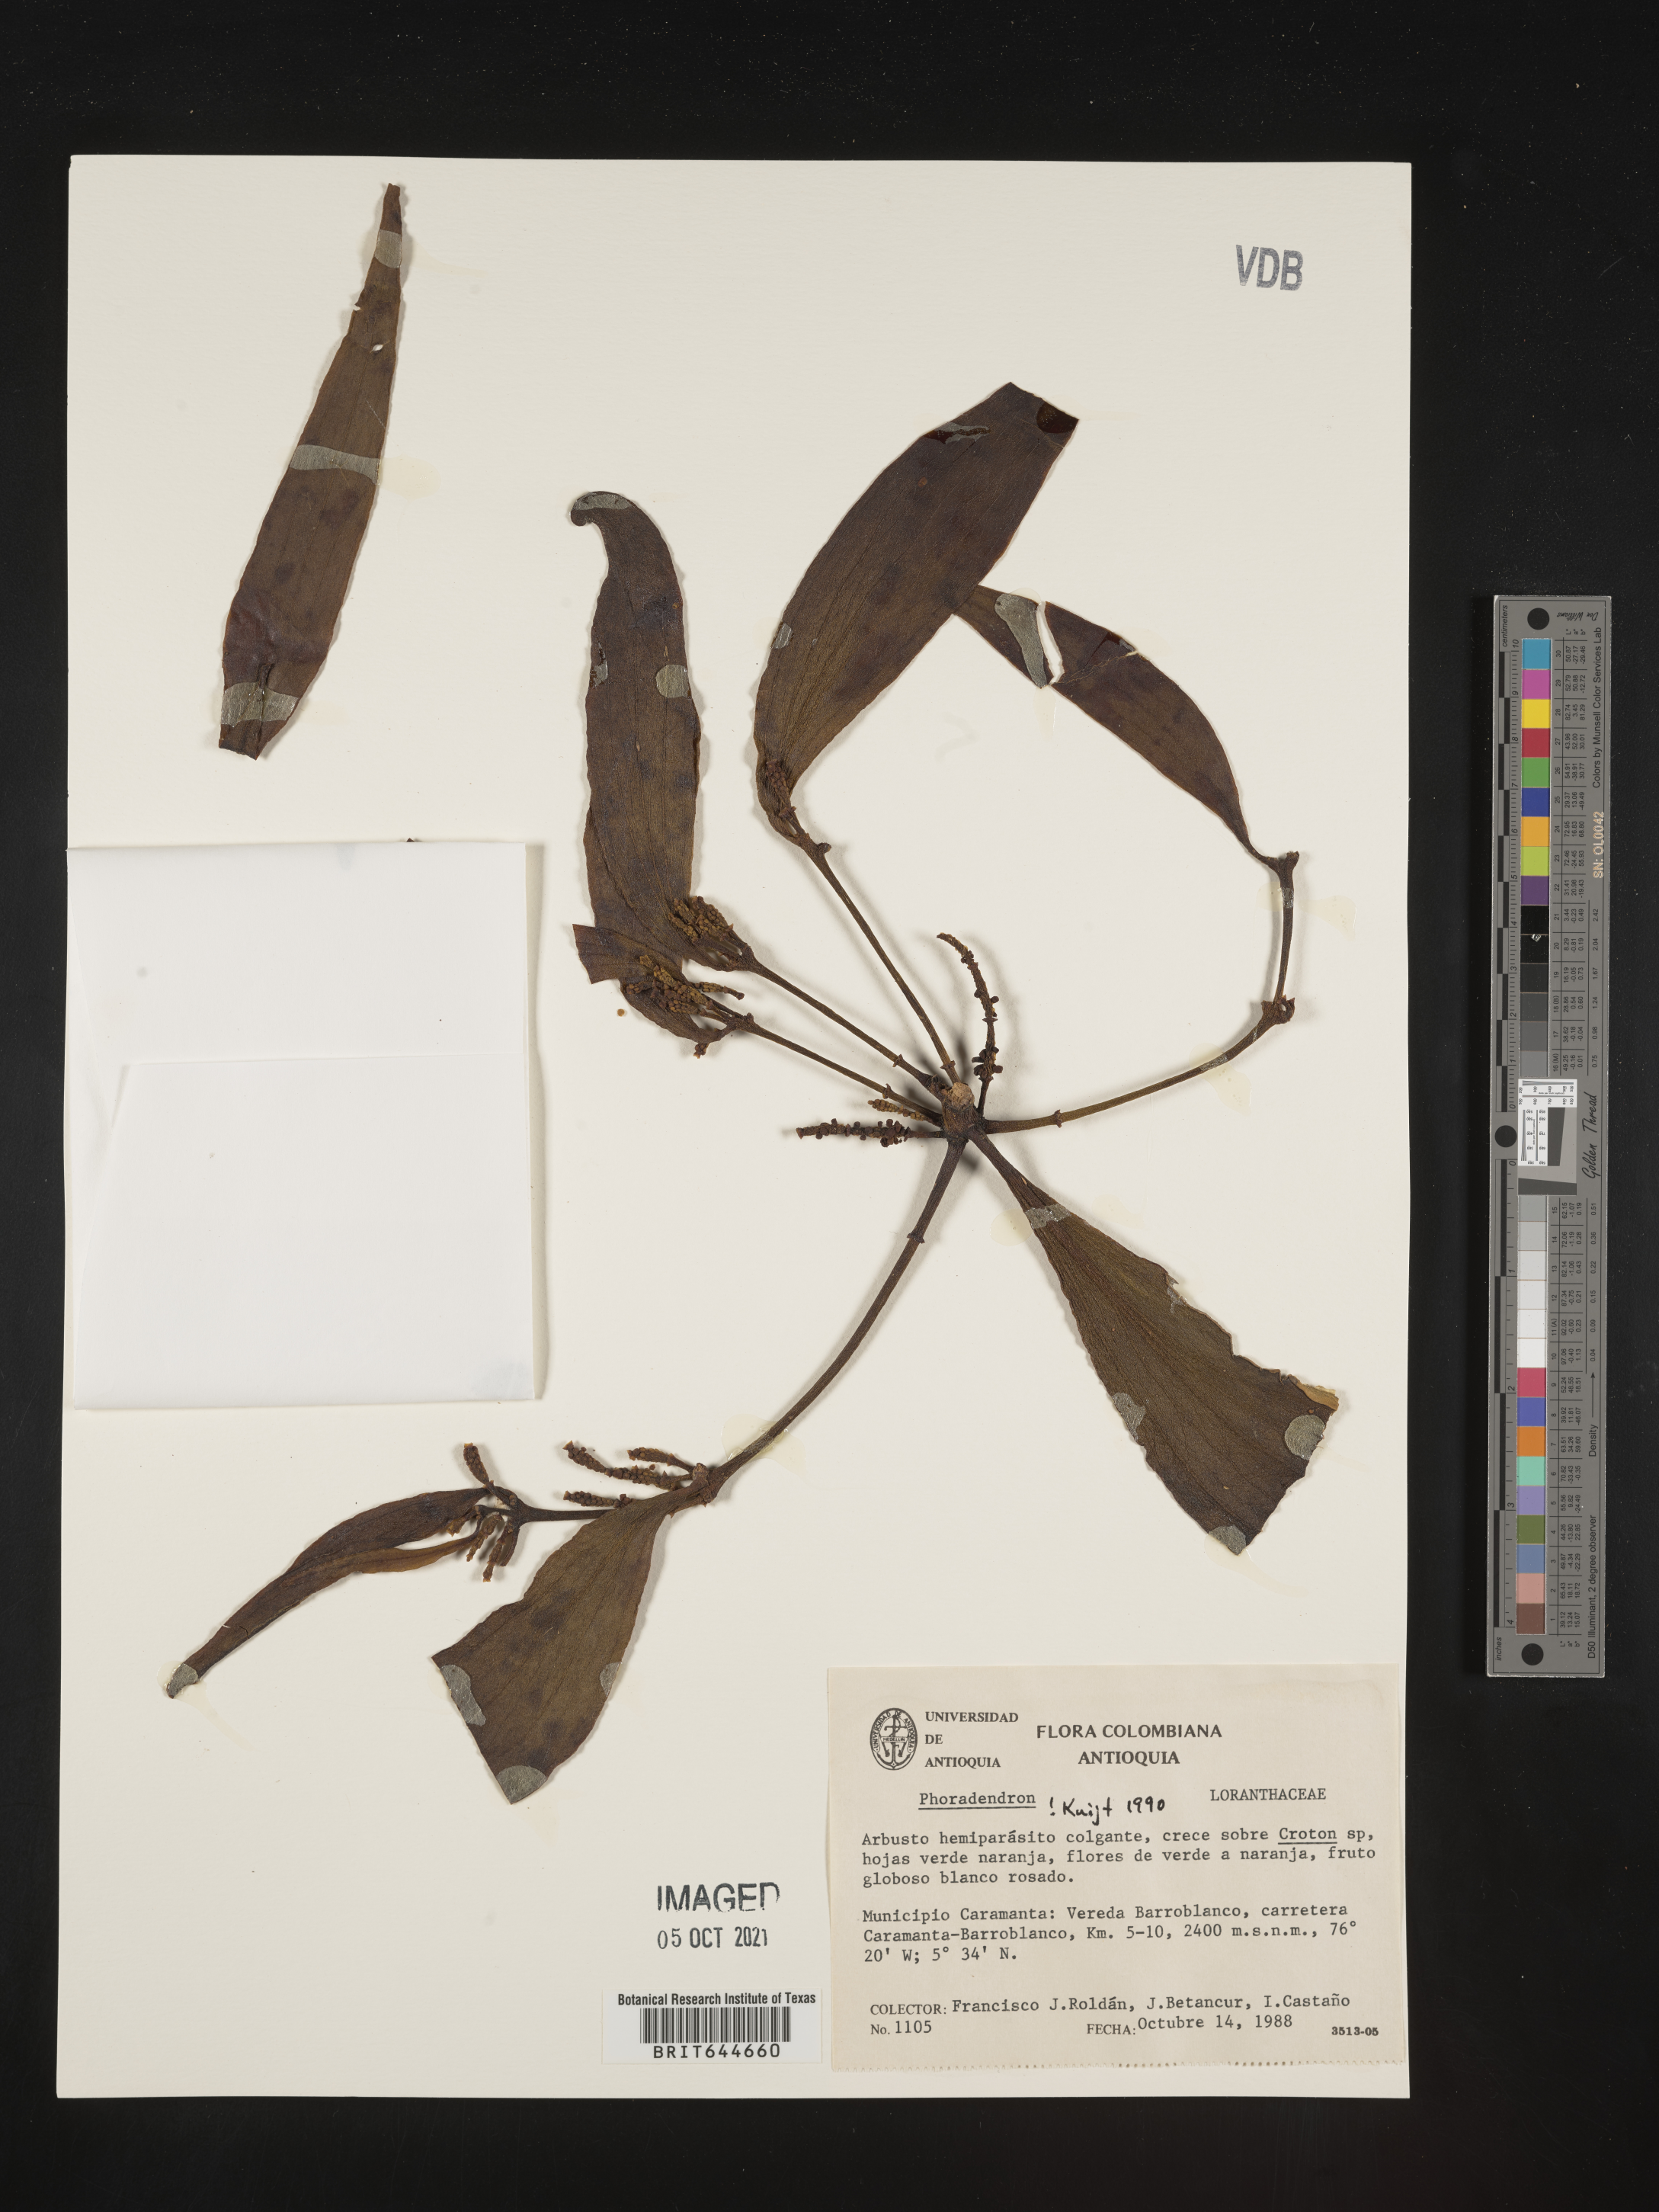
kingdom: Plantae
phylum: Tracheophyta
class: Magnoliopsida
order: Santalales
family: Viscaceae
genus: Phoradendron
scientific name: Phoradendron
